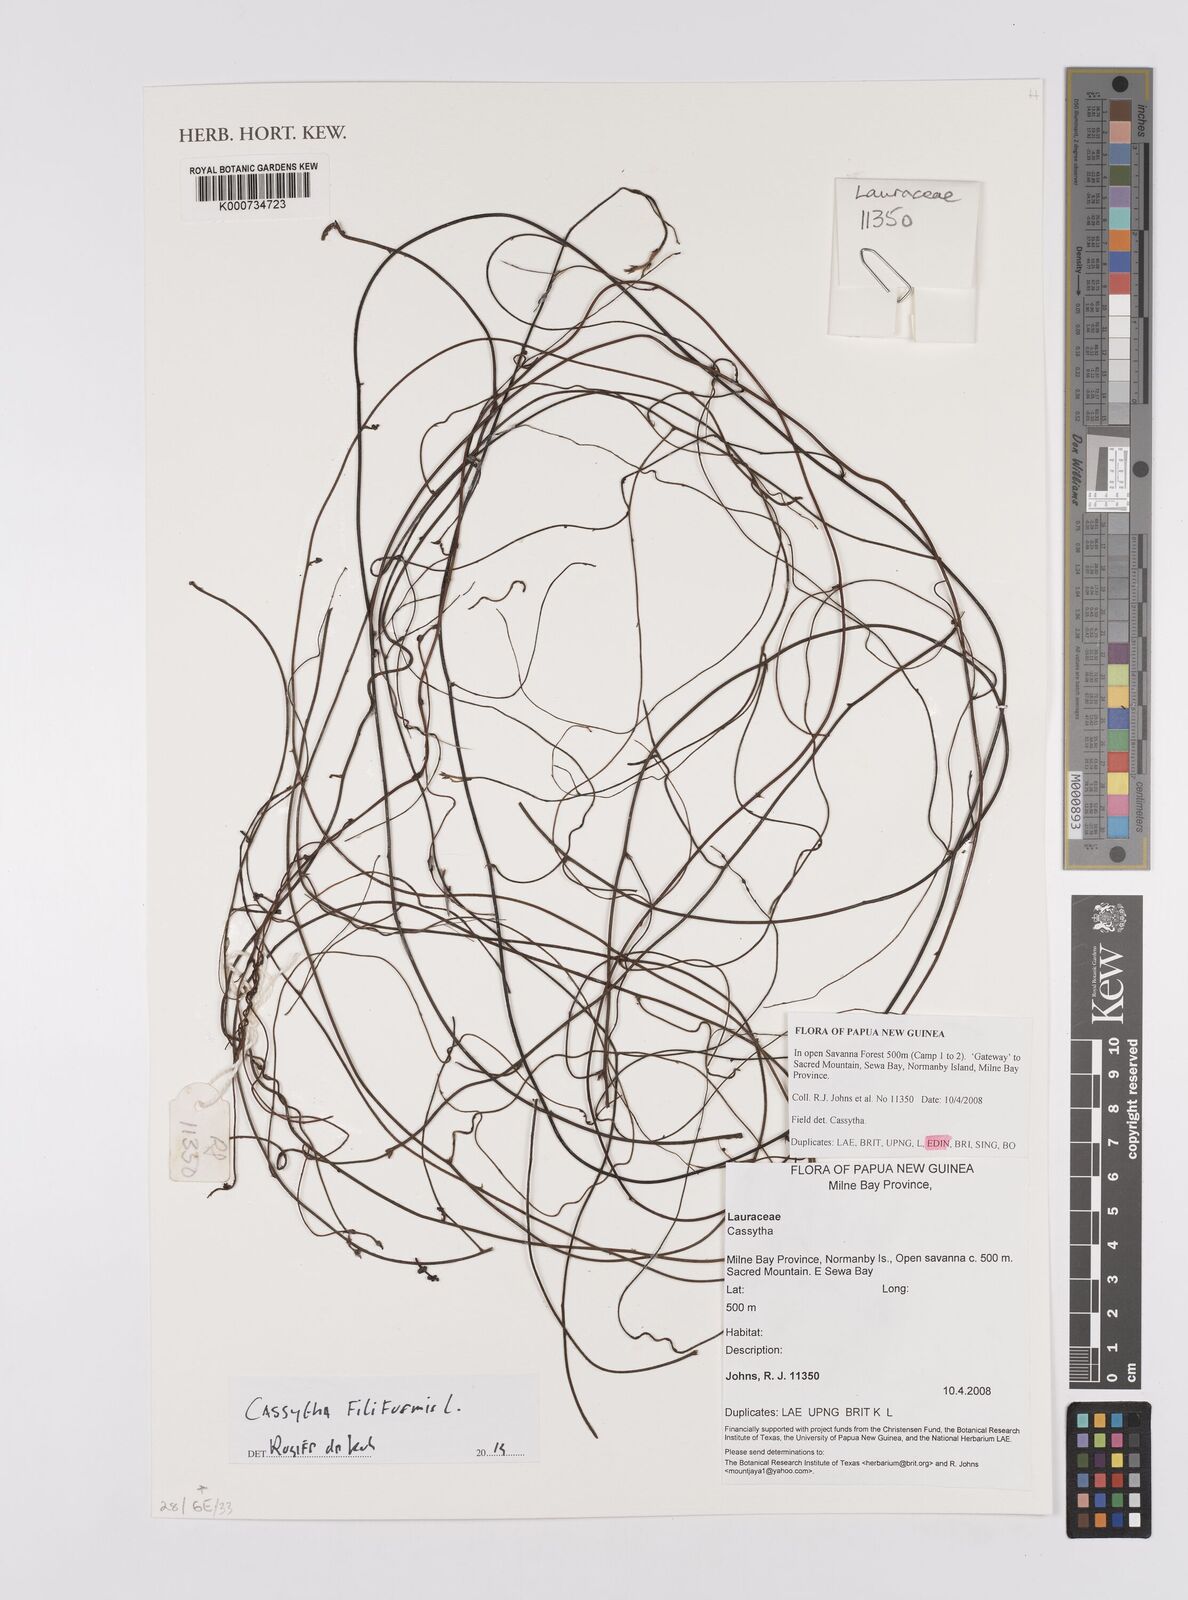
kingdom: Plantae
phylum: Tracheophyta
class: Magnoliopsida
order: Laurales
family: Lauraceae
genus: Cassytha
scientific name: Cassytha filiformis
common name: Dodder-laurel
